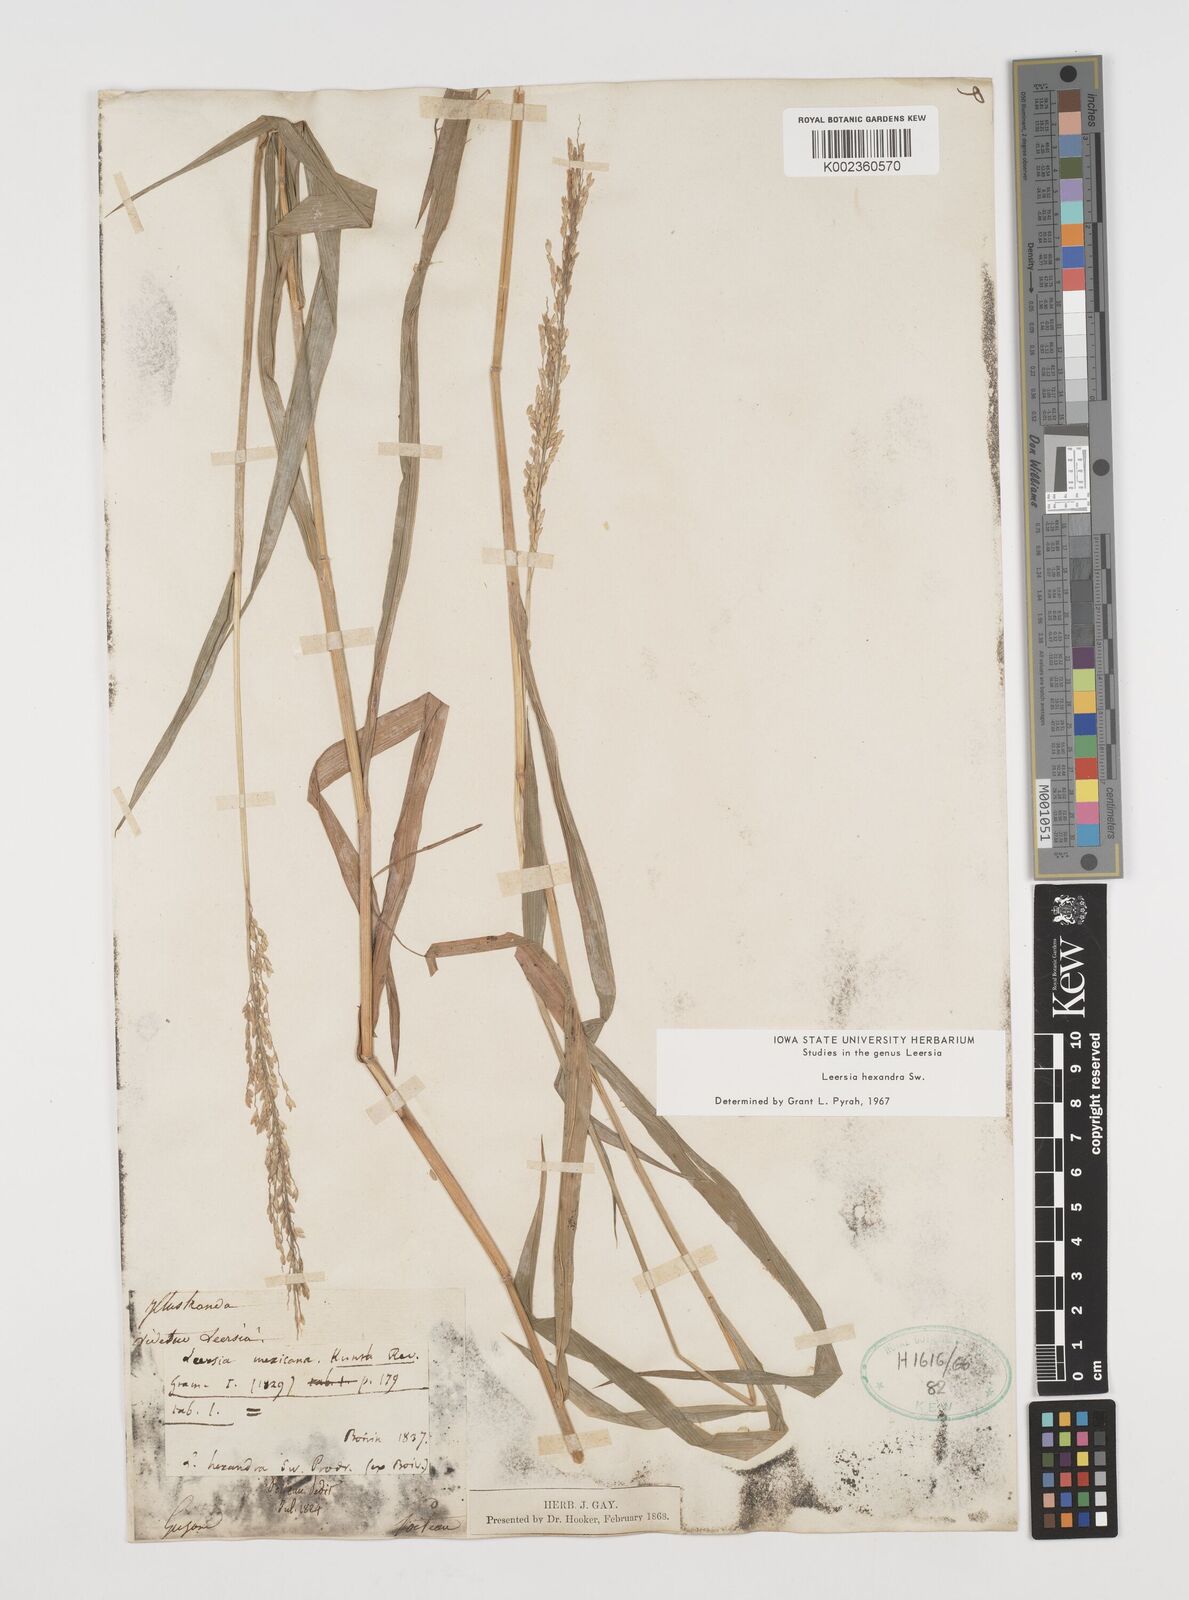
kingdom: Plantae
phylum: Tracheophyta
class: Liliopsida
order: Poales
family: Poaceae
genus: Leersia
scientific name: Leersia hexandra
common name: Southern cut grass
